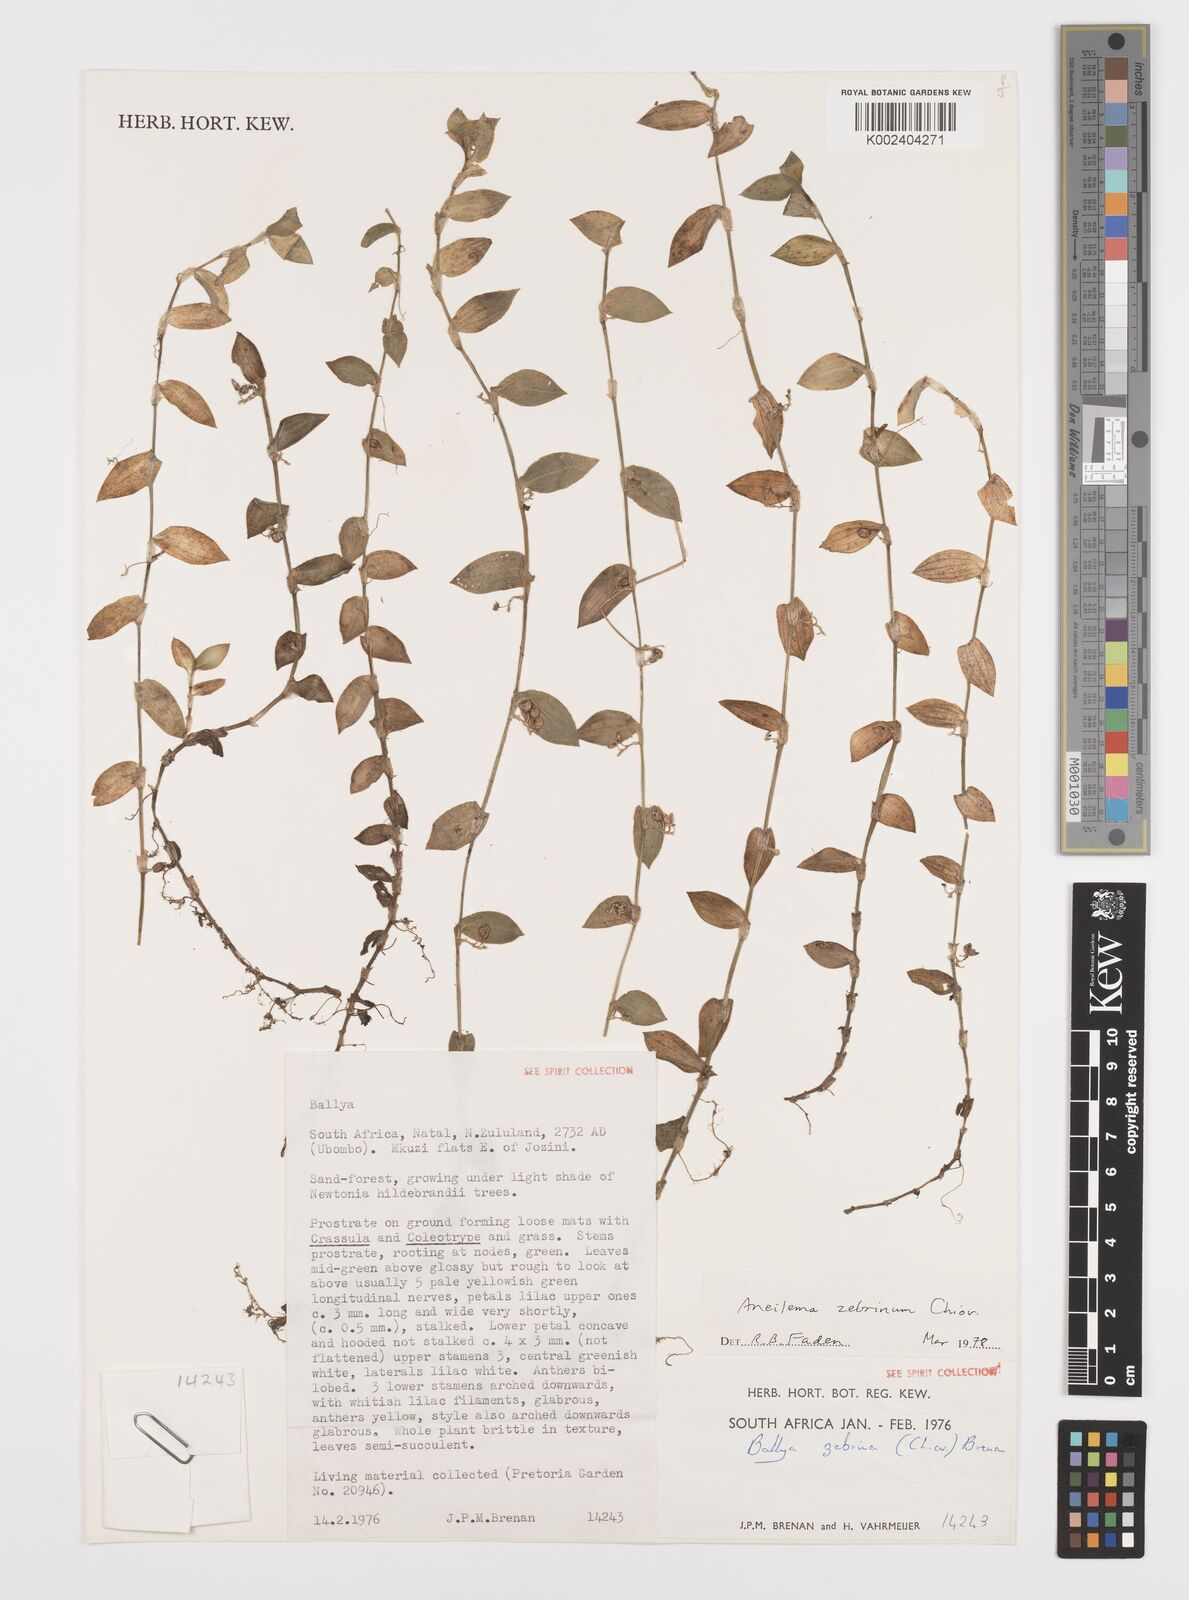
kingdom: Plantae
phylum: Tracheophyta
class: Liliopsida
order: Commelinales
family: Commelinaceae
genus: Aneilema
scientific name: Aneilema zebrinum
